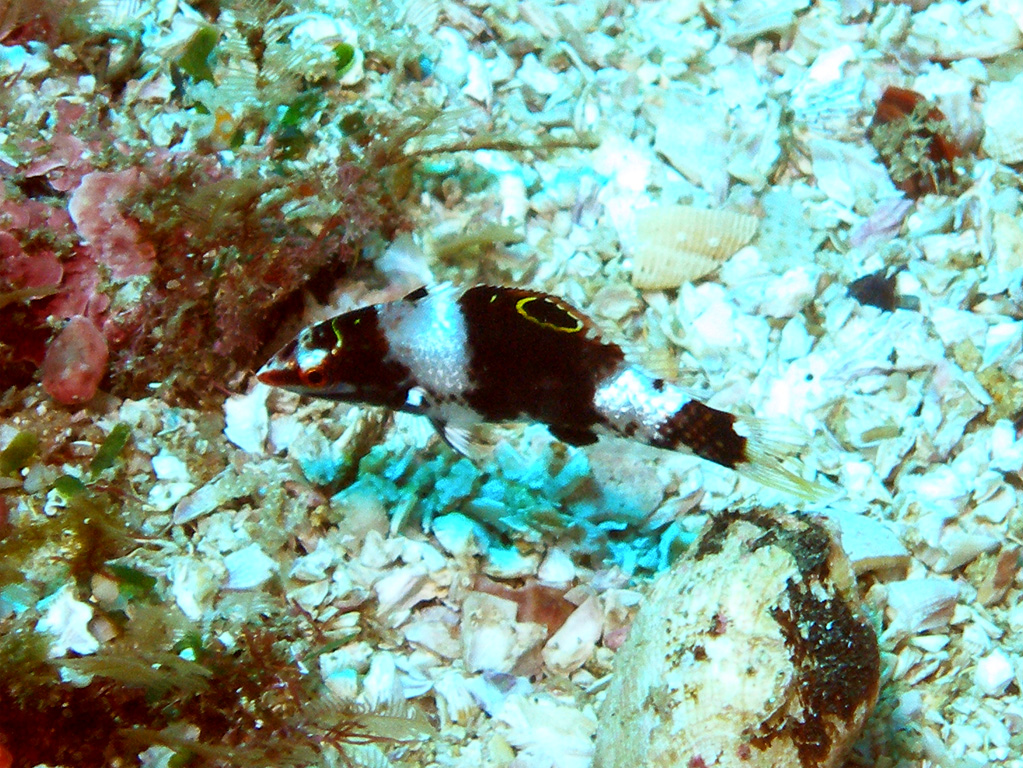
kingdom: Animalia
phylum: Chordata
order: Perciformes
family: Labridae
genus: Halichoeres
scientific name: Halichoeres hortulanus
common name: Checkerboard wrasse
